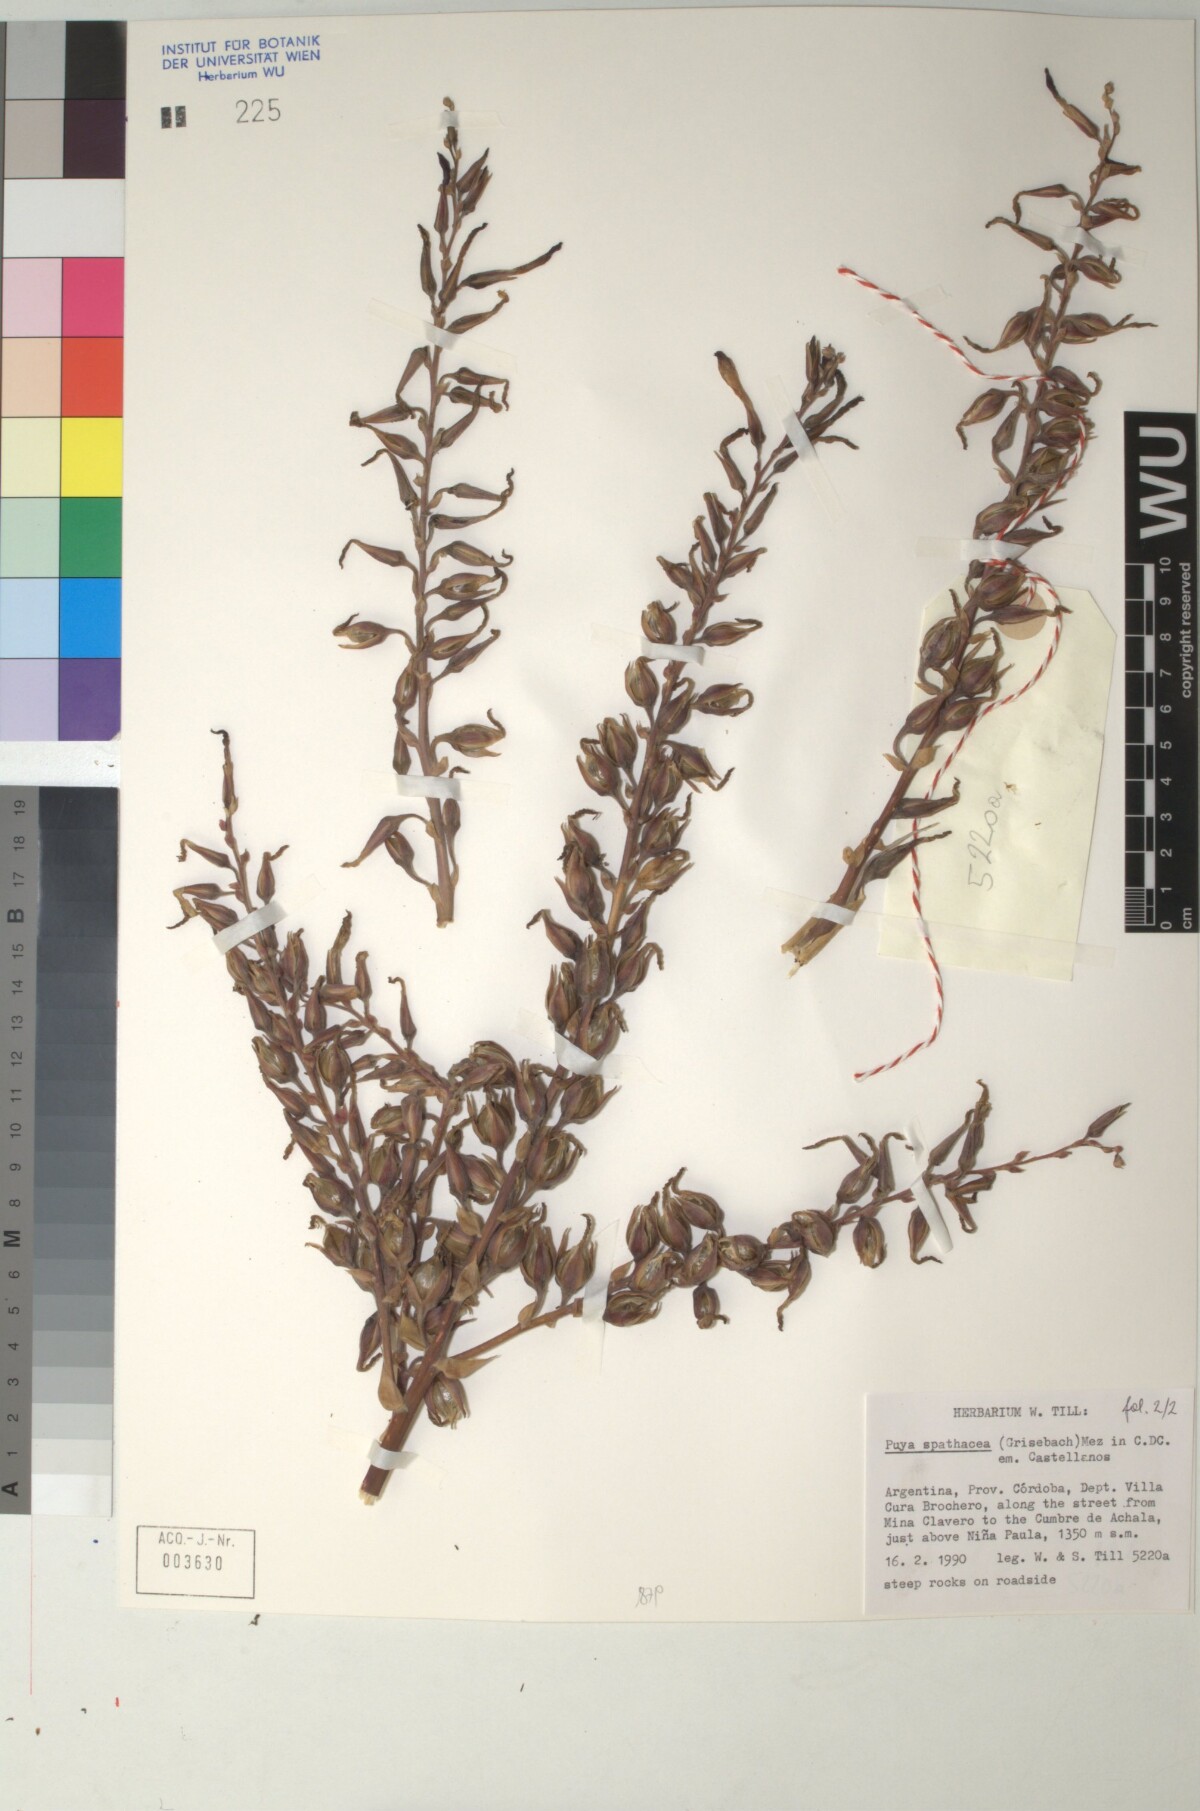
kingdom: Plantae
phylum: Tracheophyta
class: Liliopsida
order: Poales
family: Bromeliaceae
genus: Puya
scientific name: Puya spathacea
